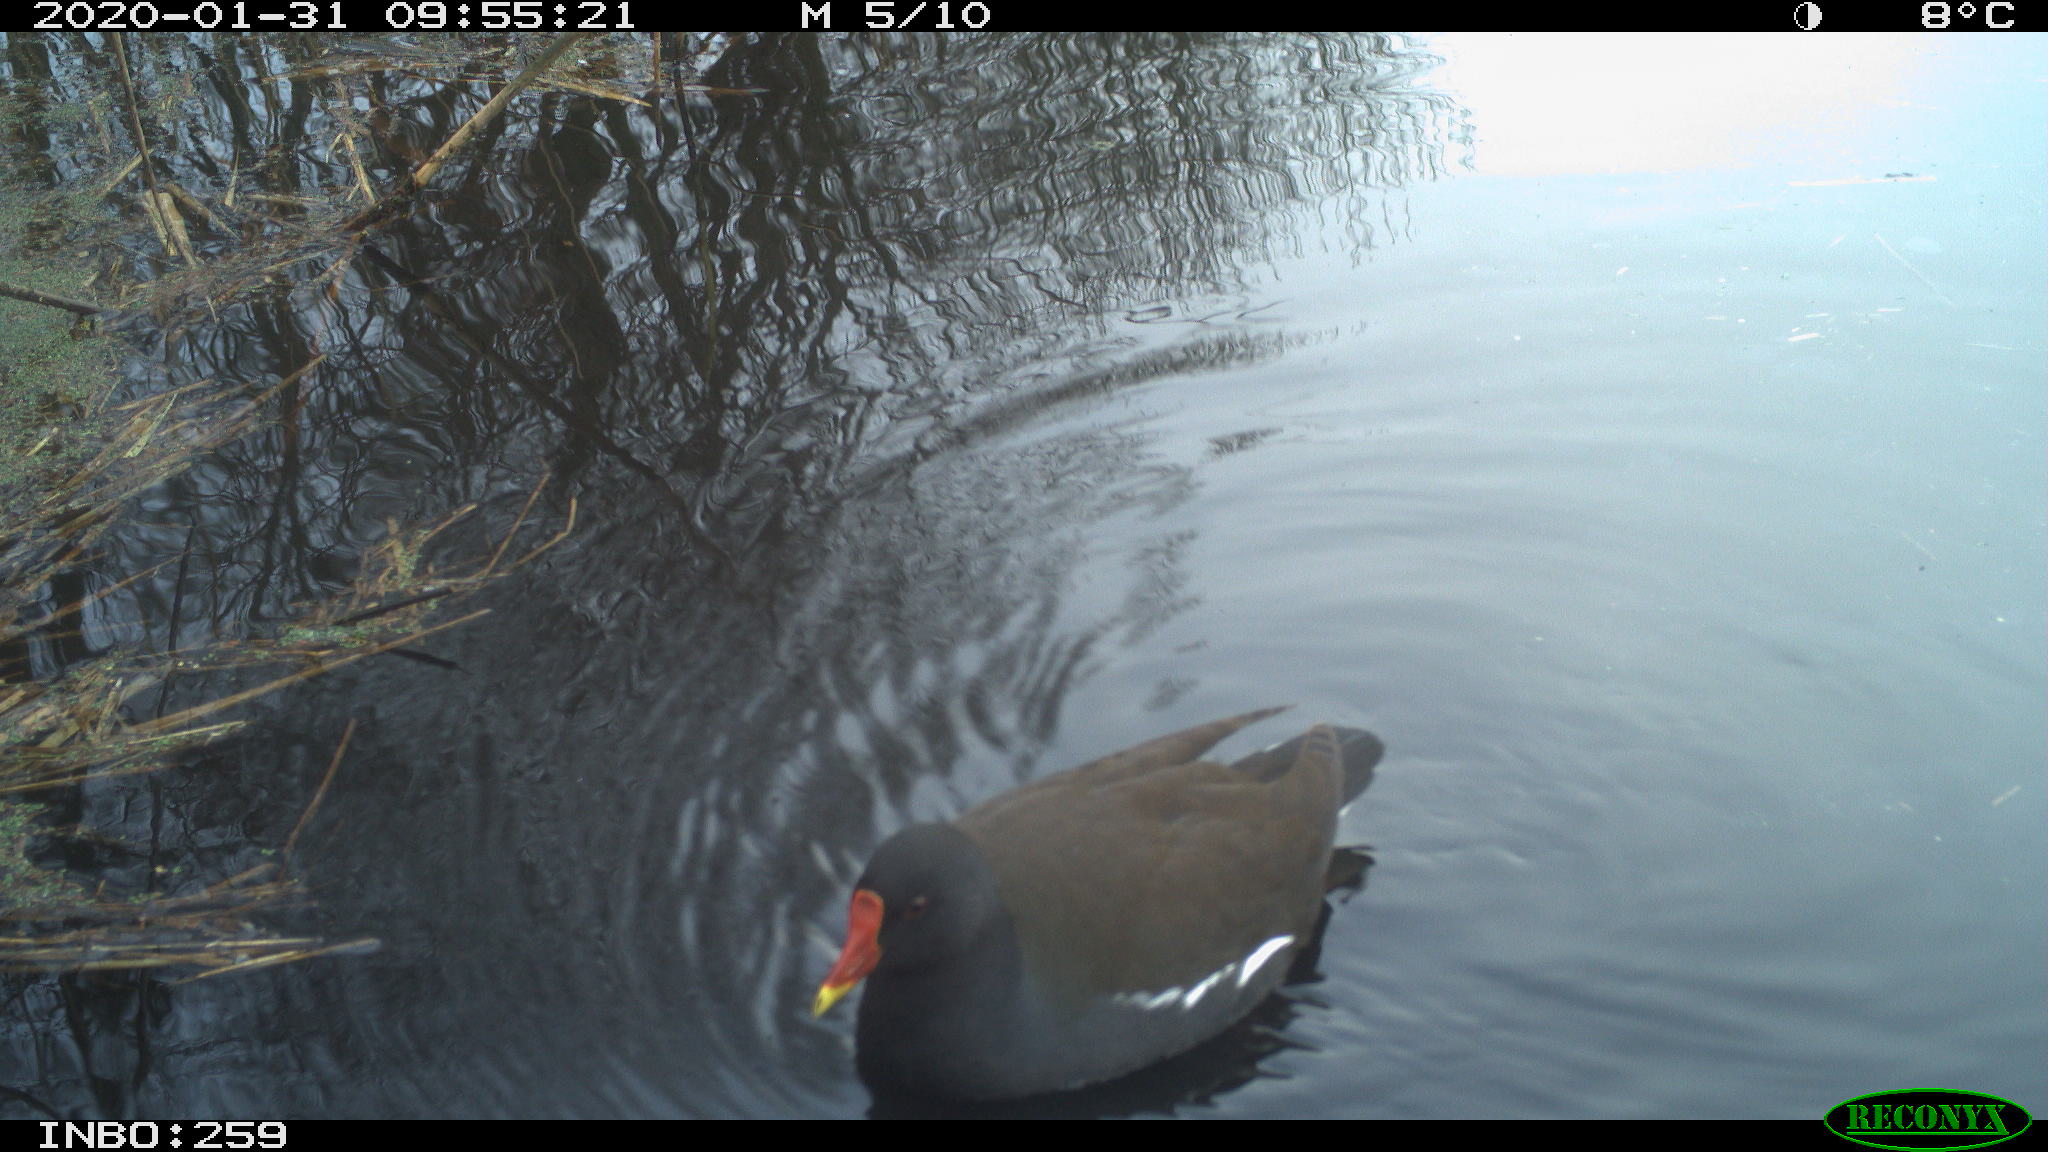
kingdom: Animalia
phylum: Chordata
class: Aves
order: Gruiformes
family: Rallidae
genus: Gallinula
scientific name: Gallinula chloropus
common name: Common moorhen
